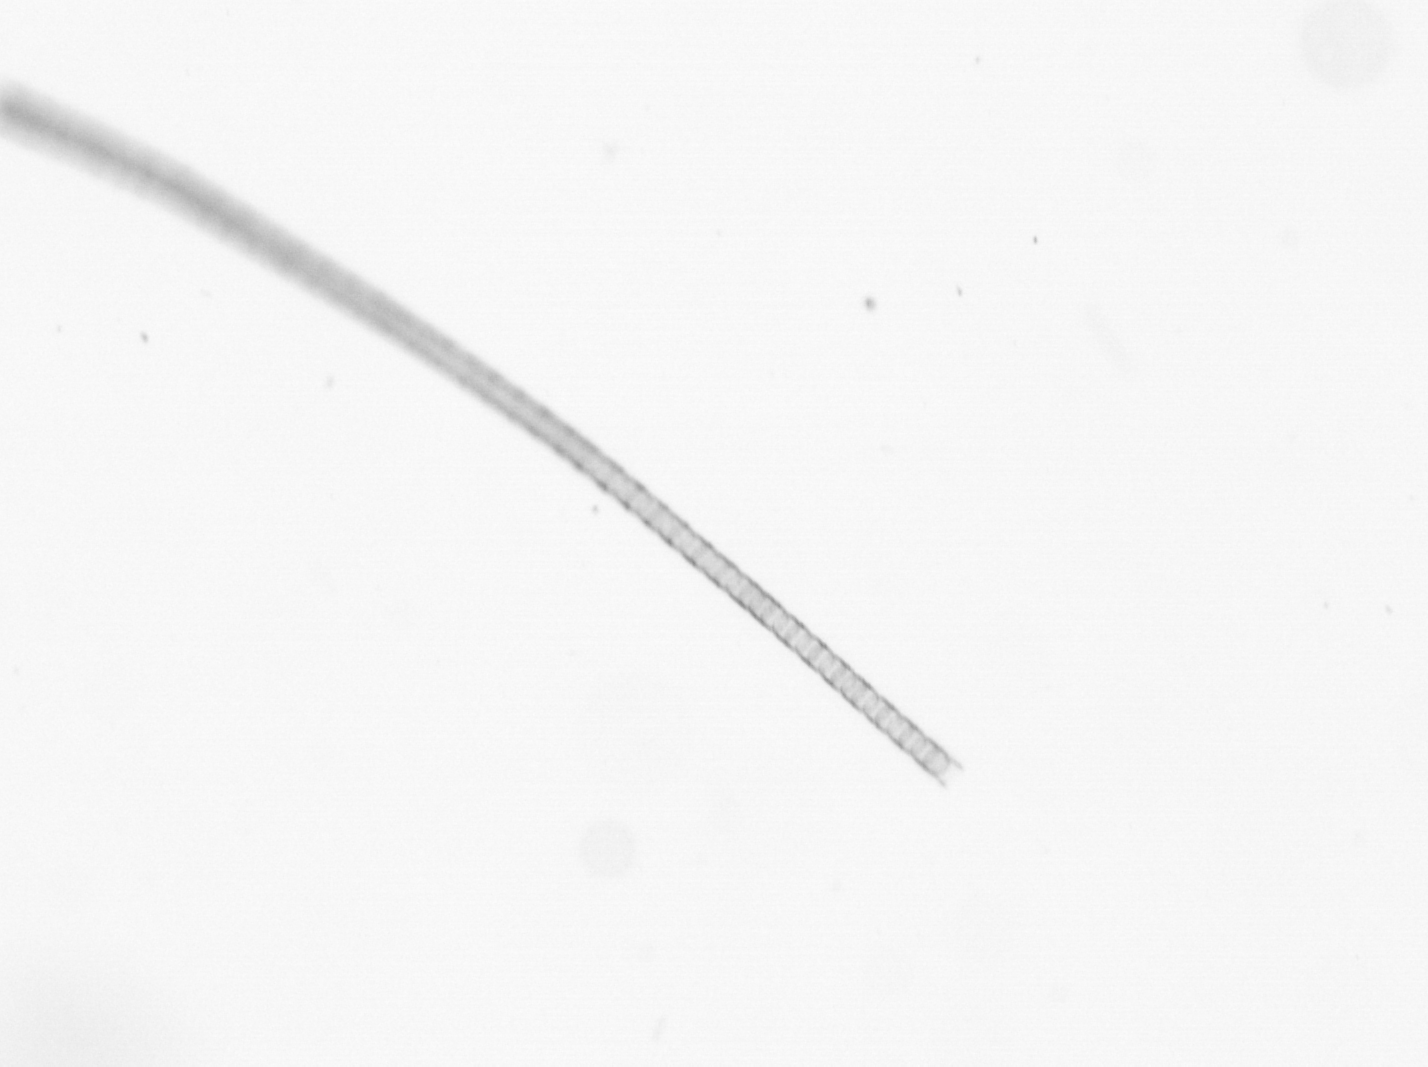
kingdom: Chromista
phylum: Ochrophyta
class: Bacillariophyceae
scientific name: Bacillariophyceae
